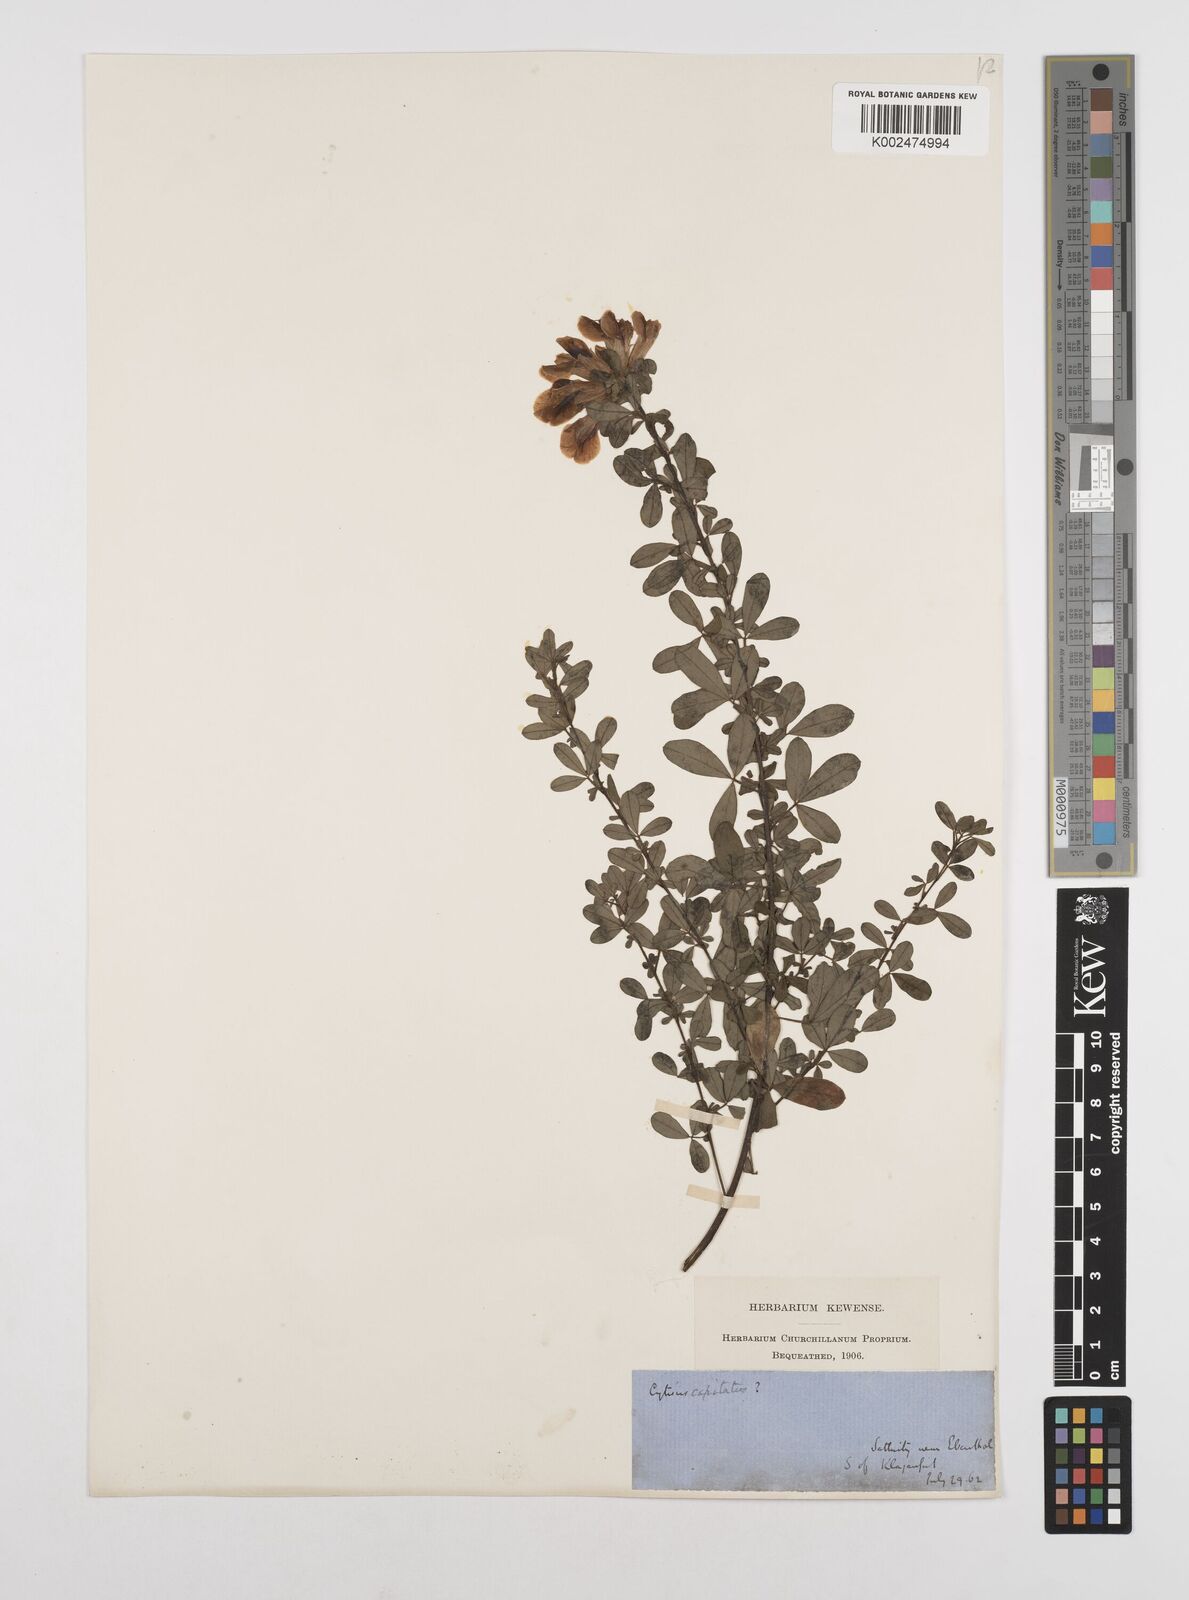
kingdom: Plantae
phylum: Tracheophyta
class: Magnoliopsida
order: Fabales
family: Fabaceae
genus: Chamaecytisus
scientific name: Chamaecytisus hirsutus
